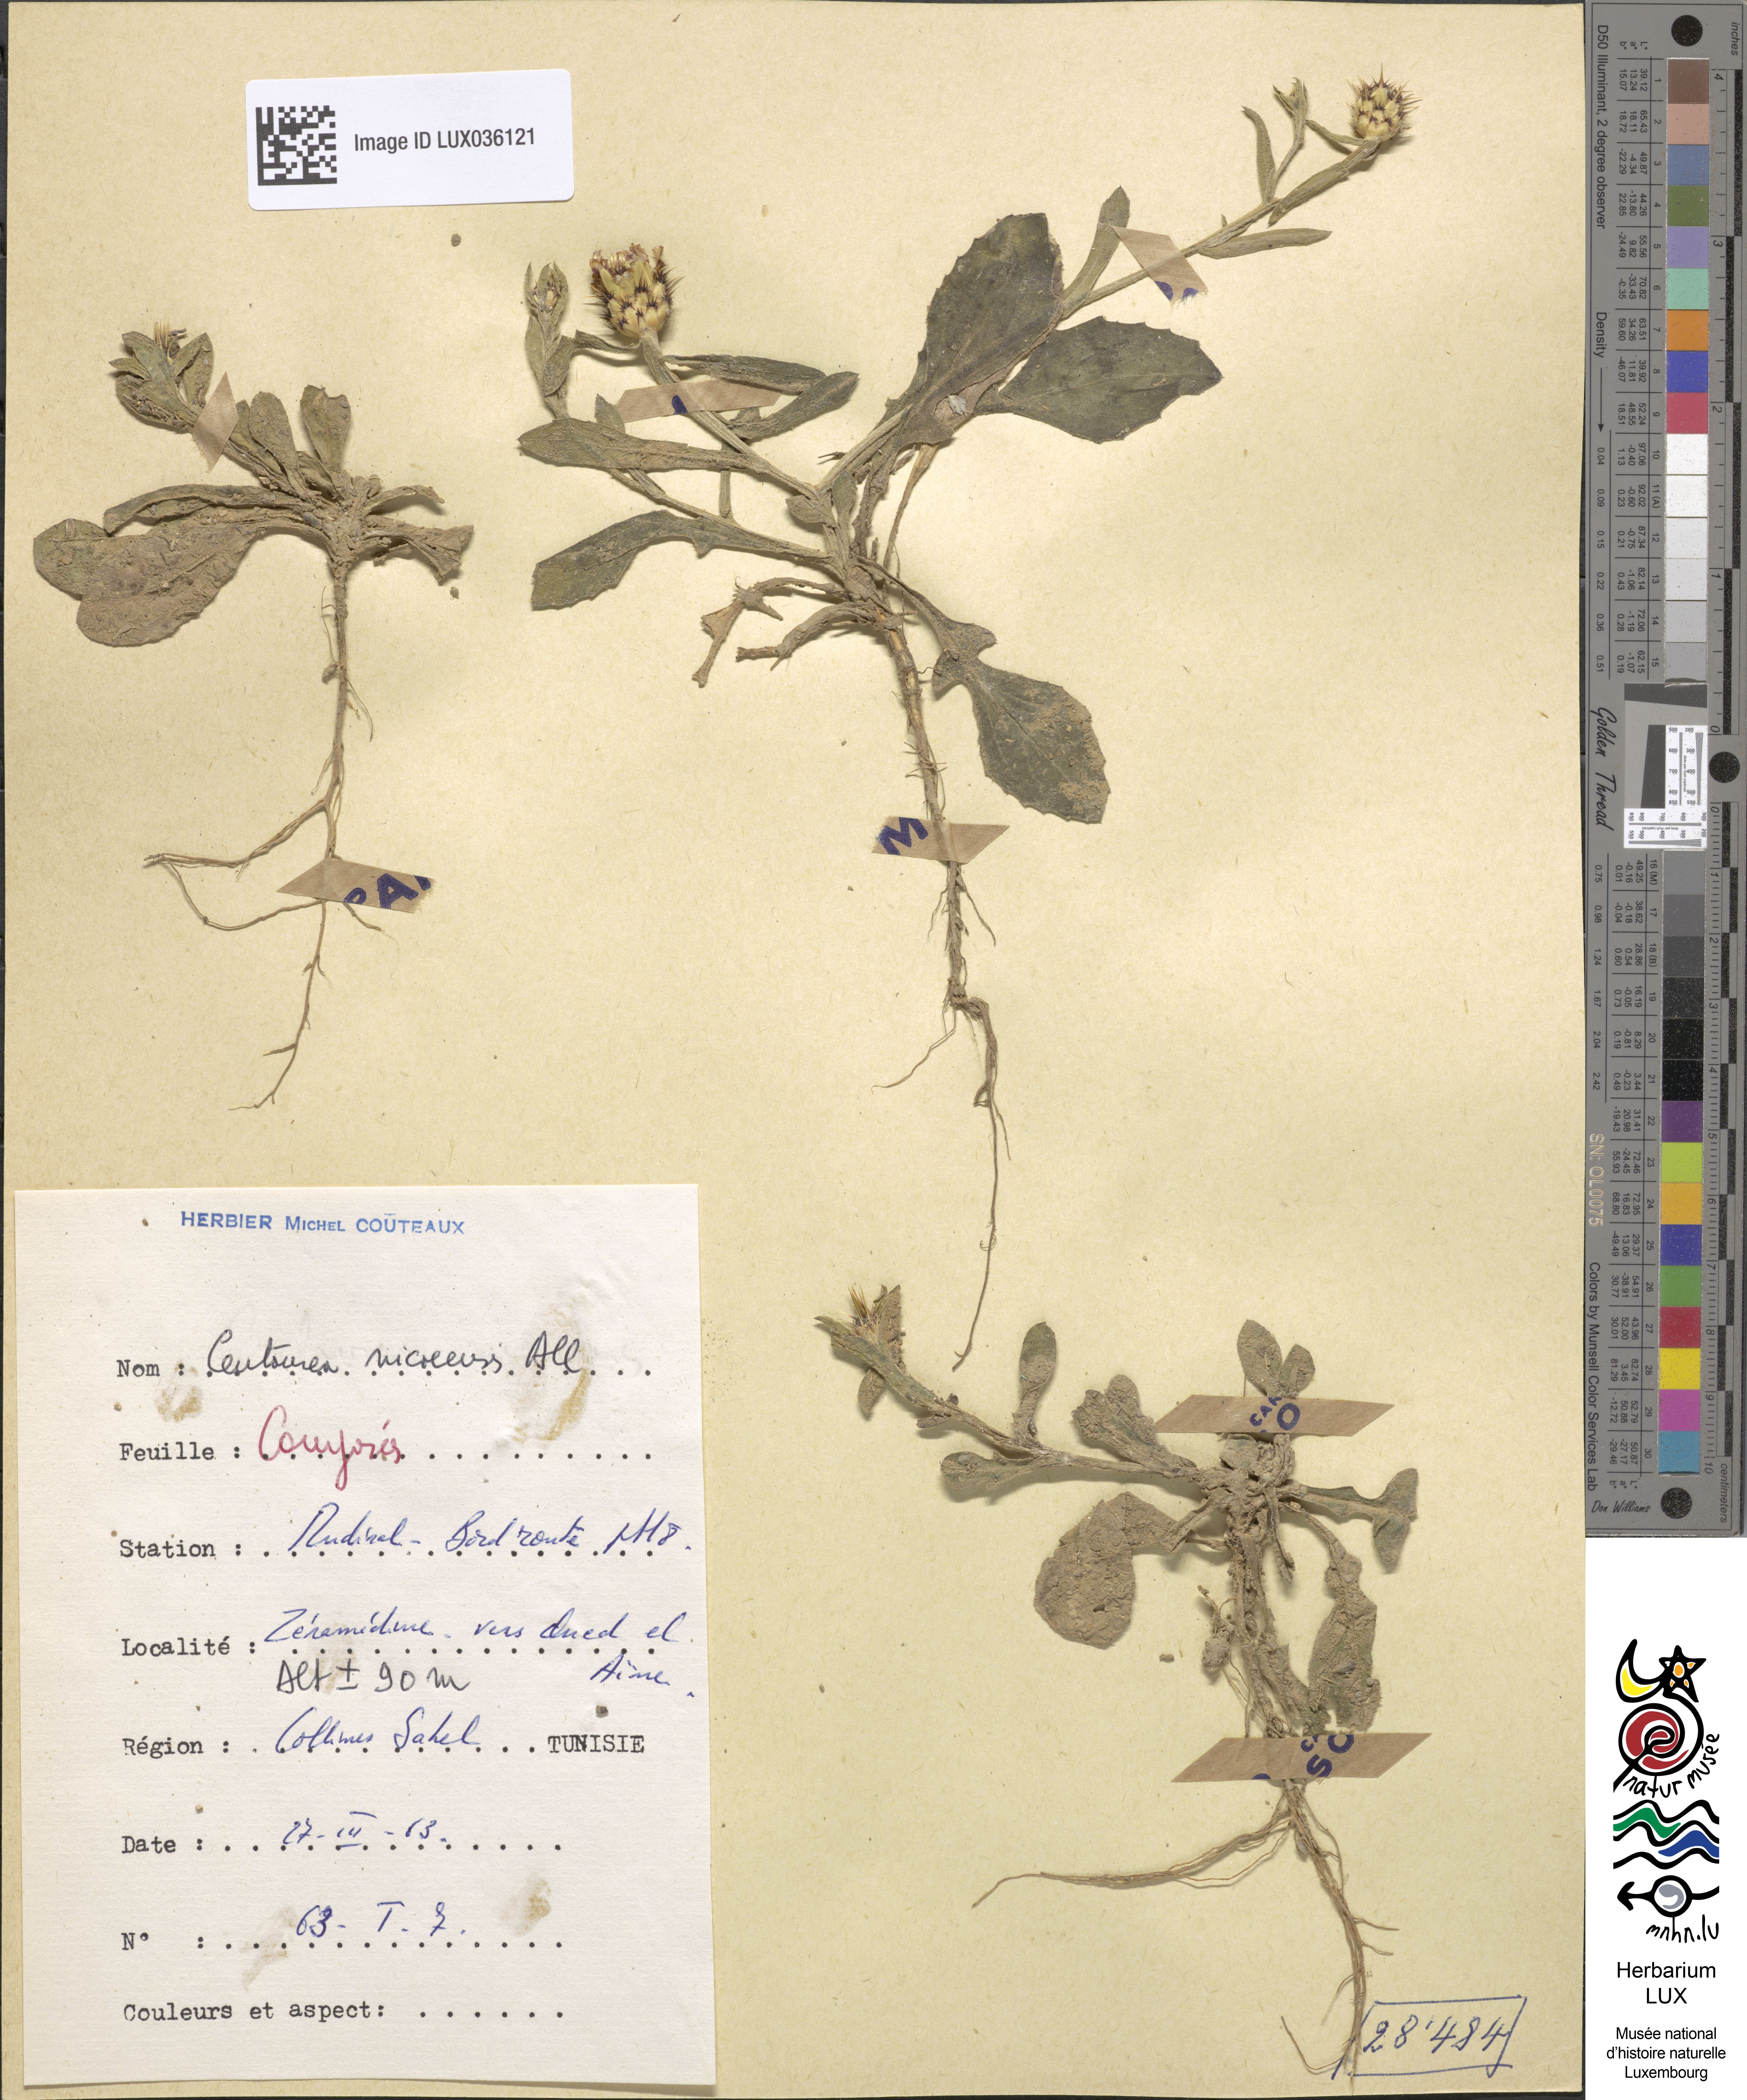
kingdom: Plantae
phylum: Tracheophyta
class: Magnoliopsida
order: Asterales
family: Asteraceae
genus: Centaurea
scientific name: Centaurea sicula
